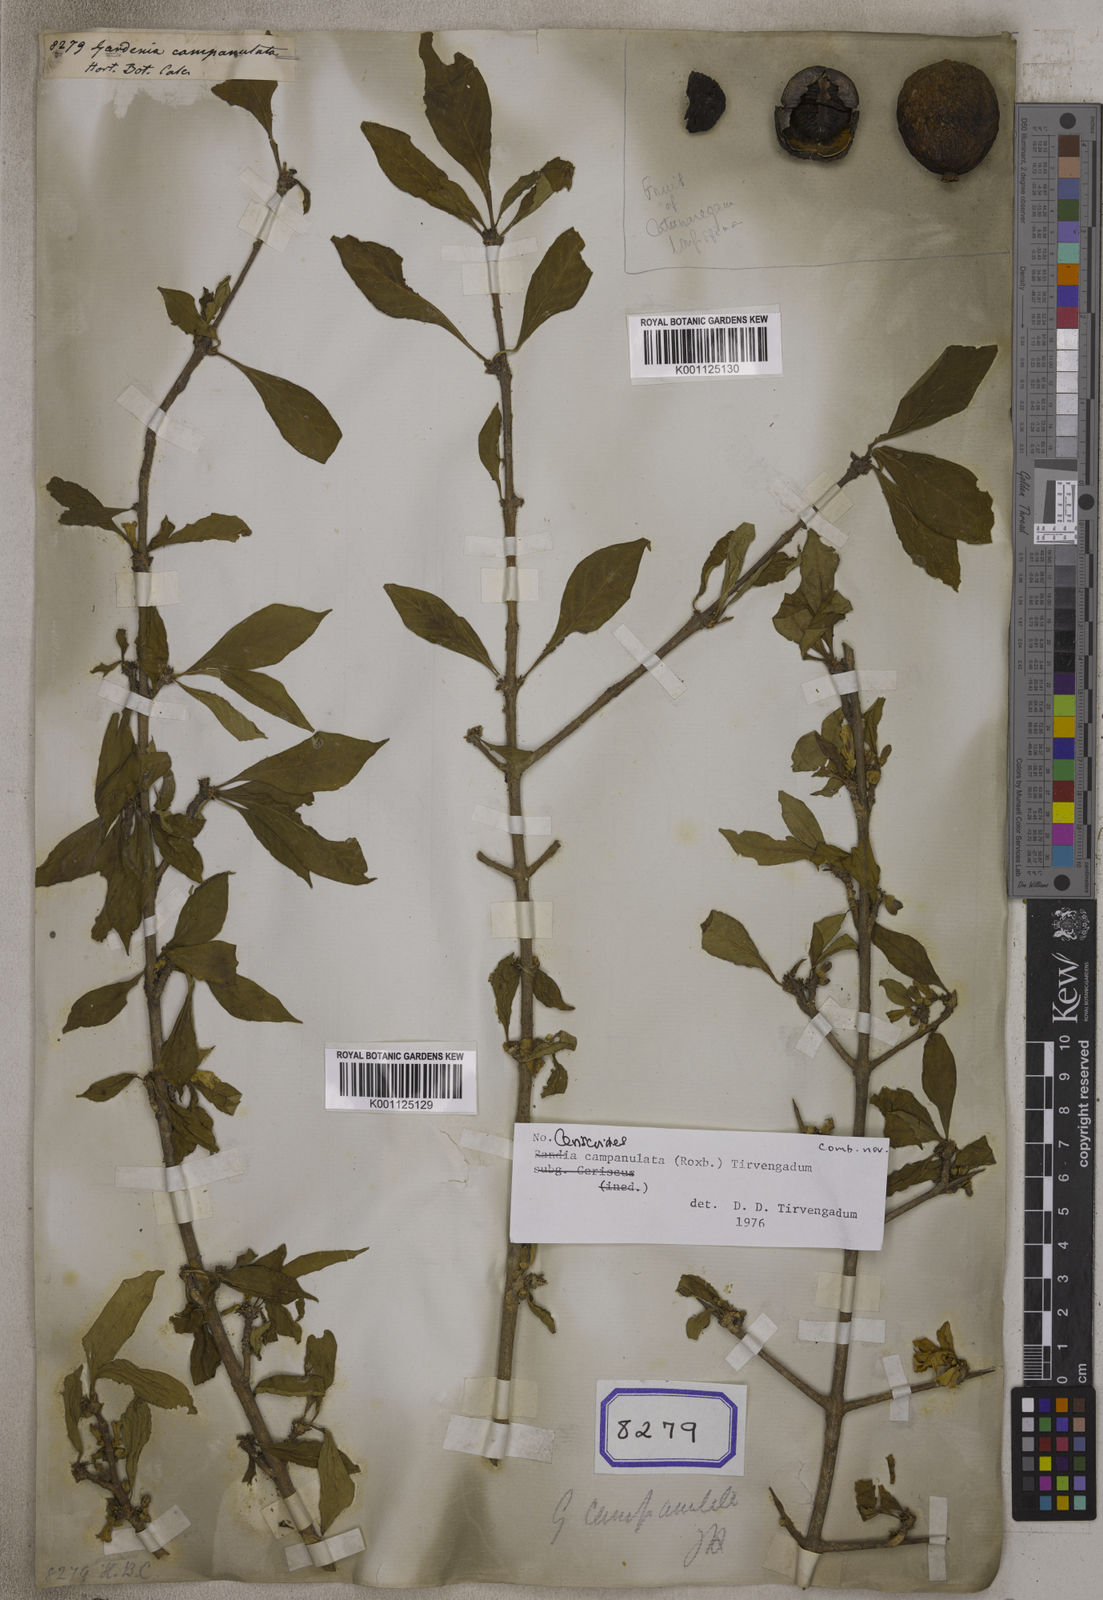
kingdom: Plantae
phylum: Tracheophyta
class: Magnoliopsida
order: Gentianales
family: Rubiaceae
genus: Ceriscoides
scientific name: Ceriscoides campanulata
